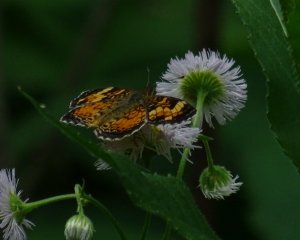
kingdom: Animalia
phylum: Arthropoda
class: Insecta
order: Lepidoptera
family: Nymphalidae
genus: Phyciodes
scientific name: Phyciodes tharos
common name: Northern Crescent
